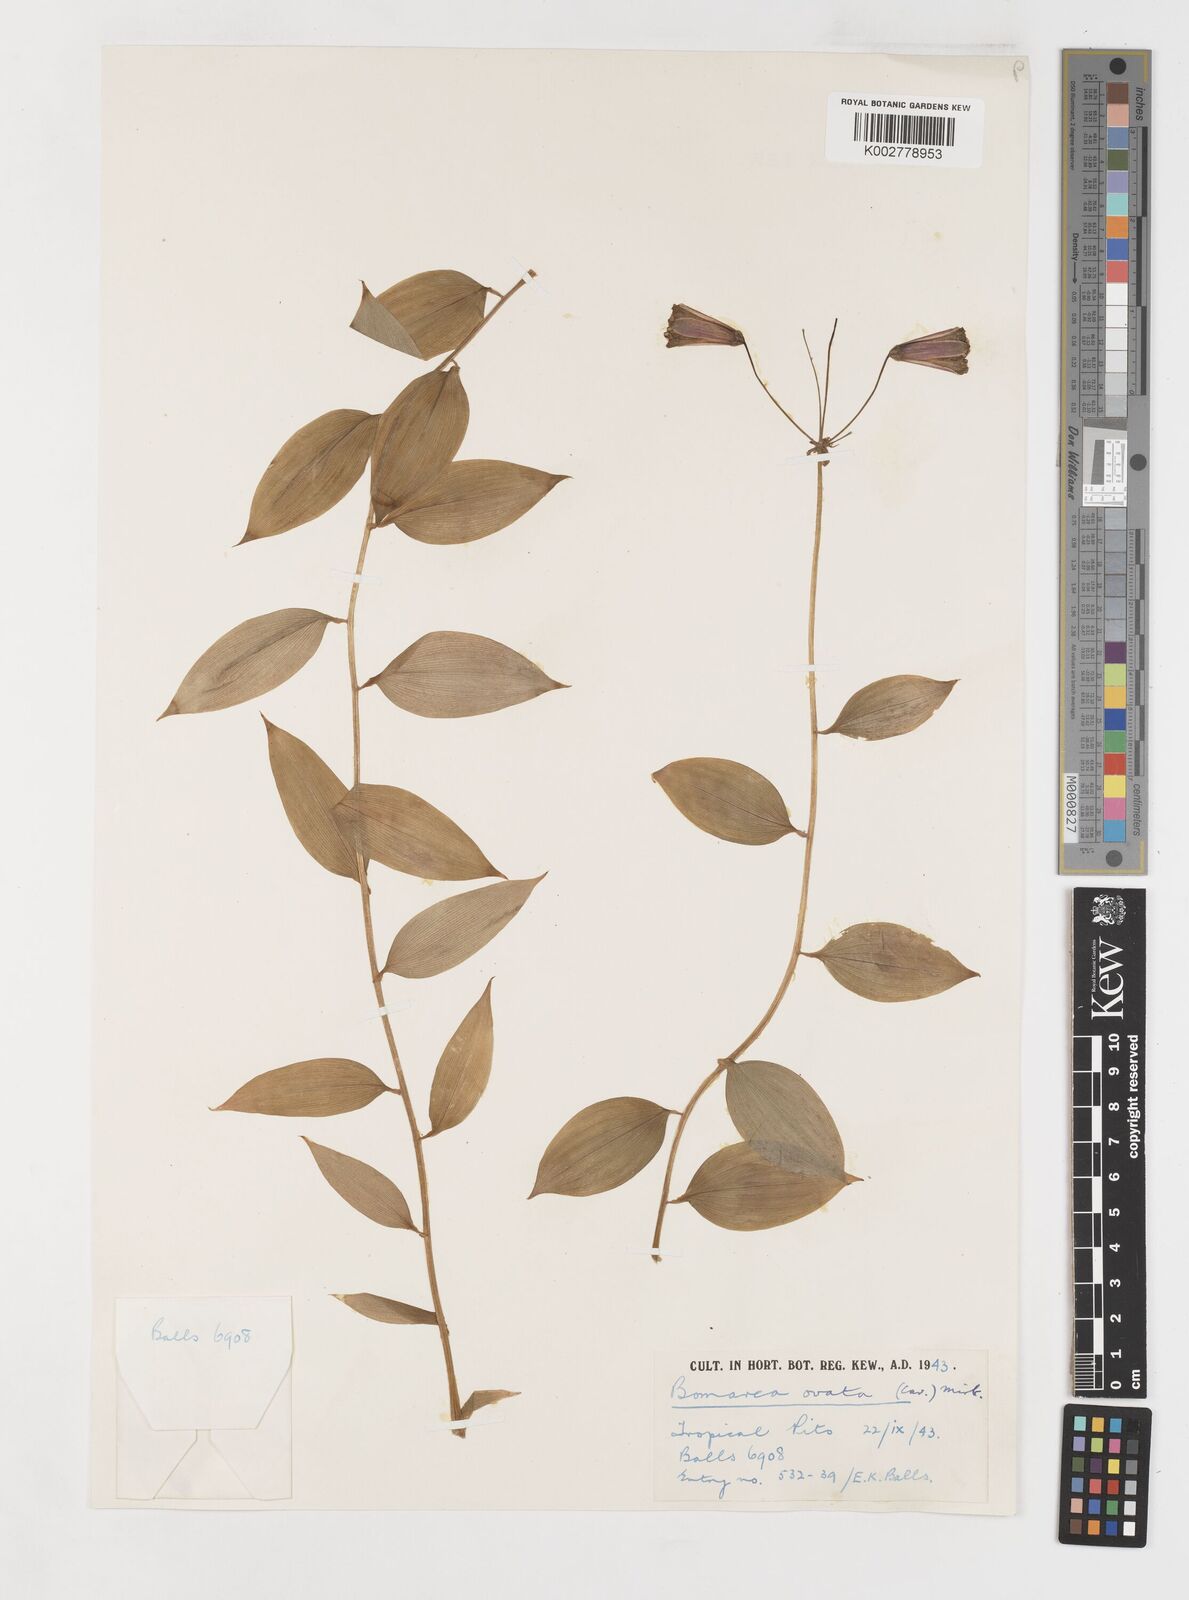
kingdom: Plantae
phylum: Tracheophyta
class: Liliopsida
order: Liliales
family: Alstroemeriaceae
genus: Bomarea
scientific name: Bomarea ovata
